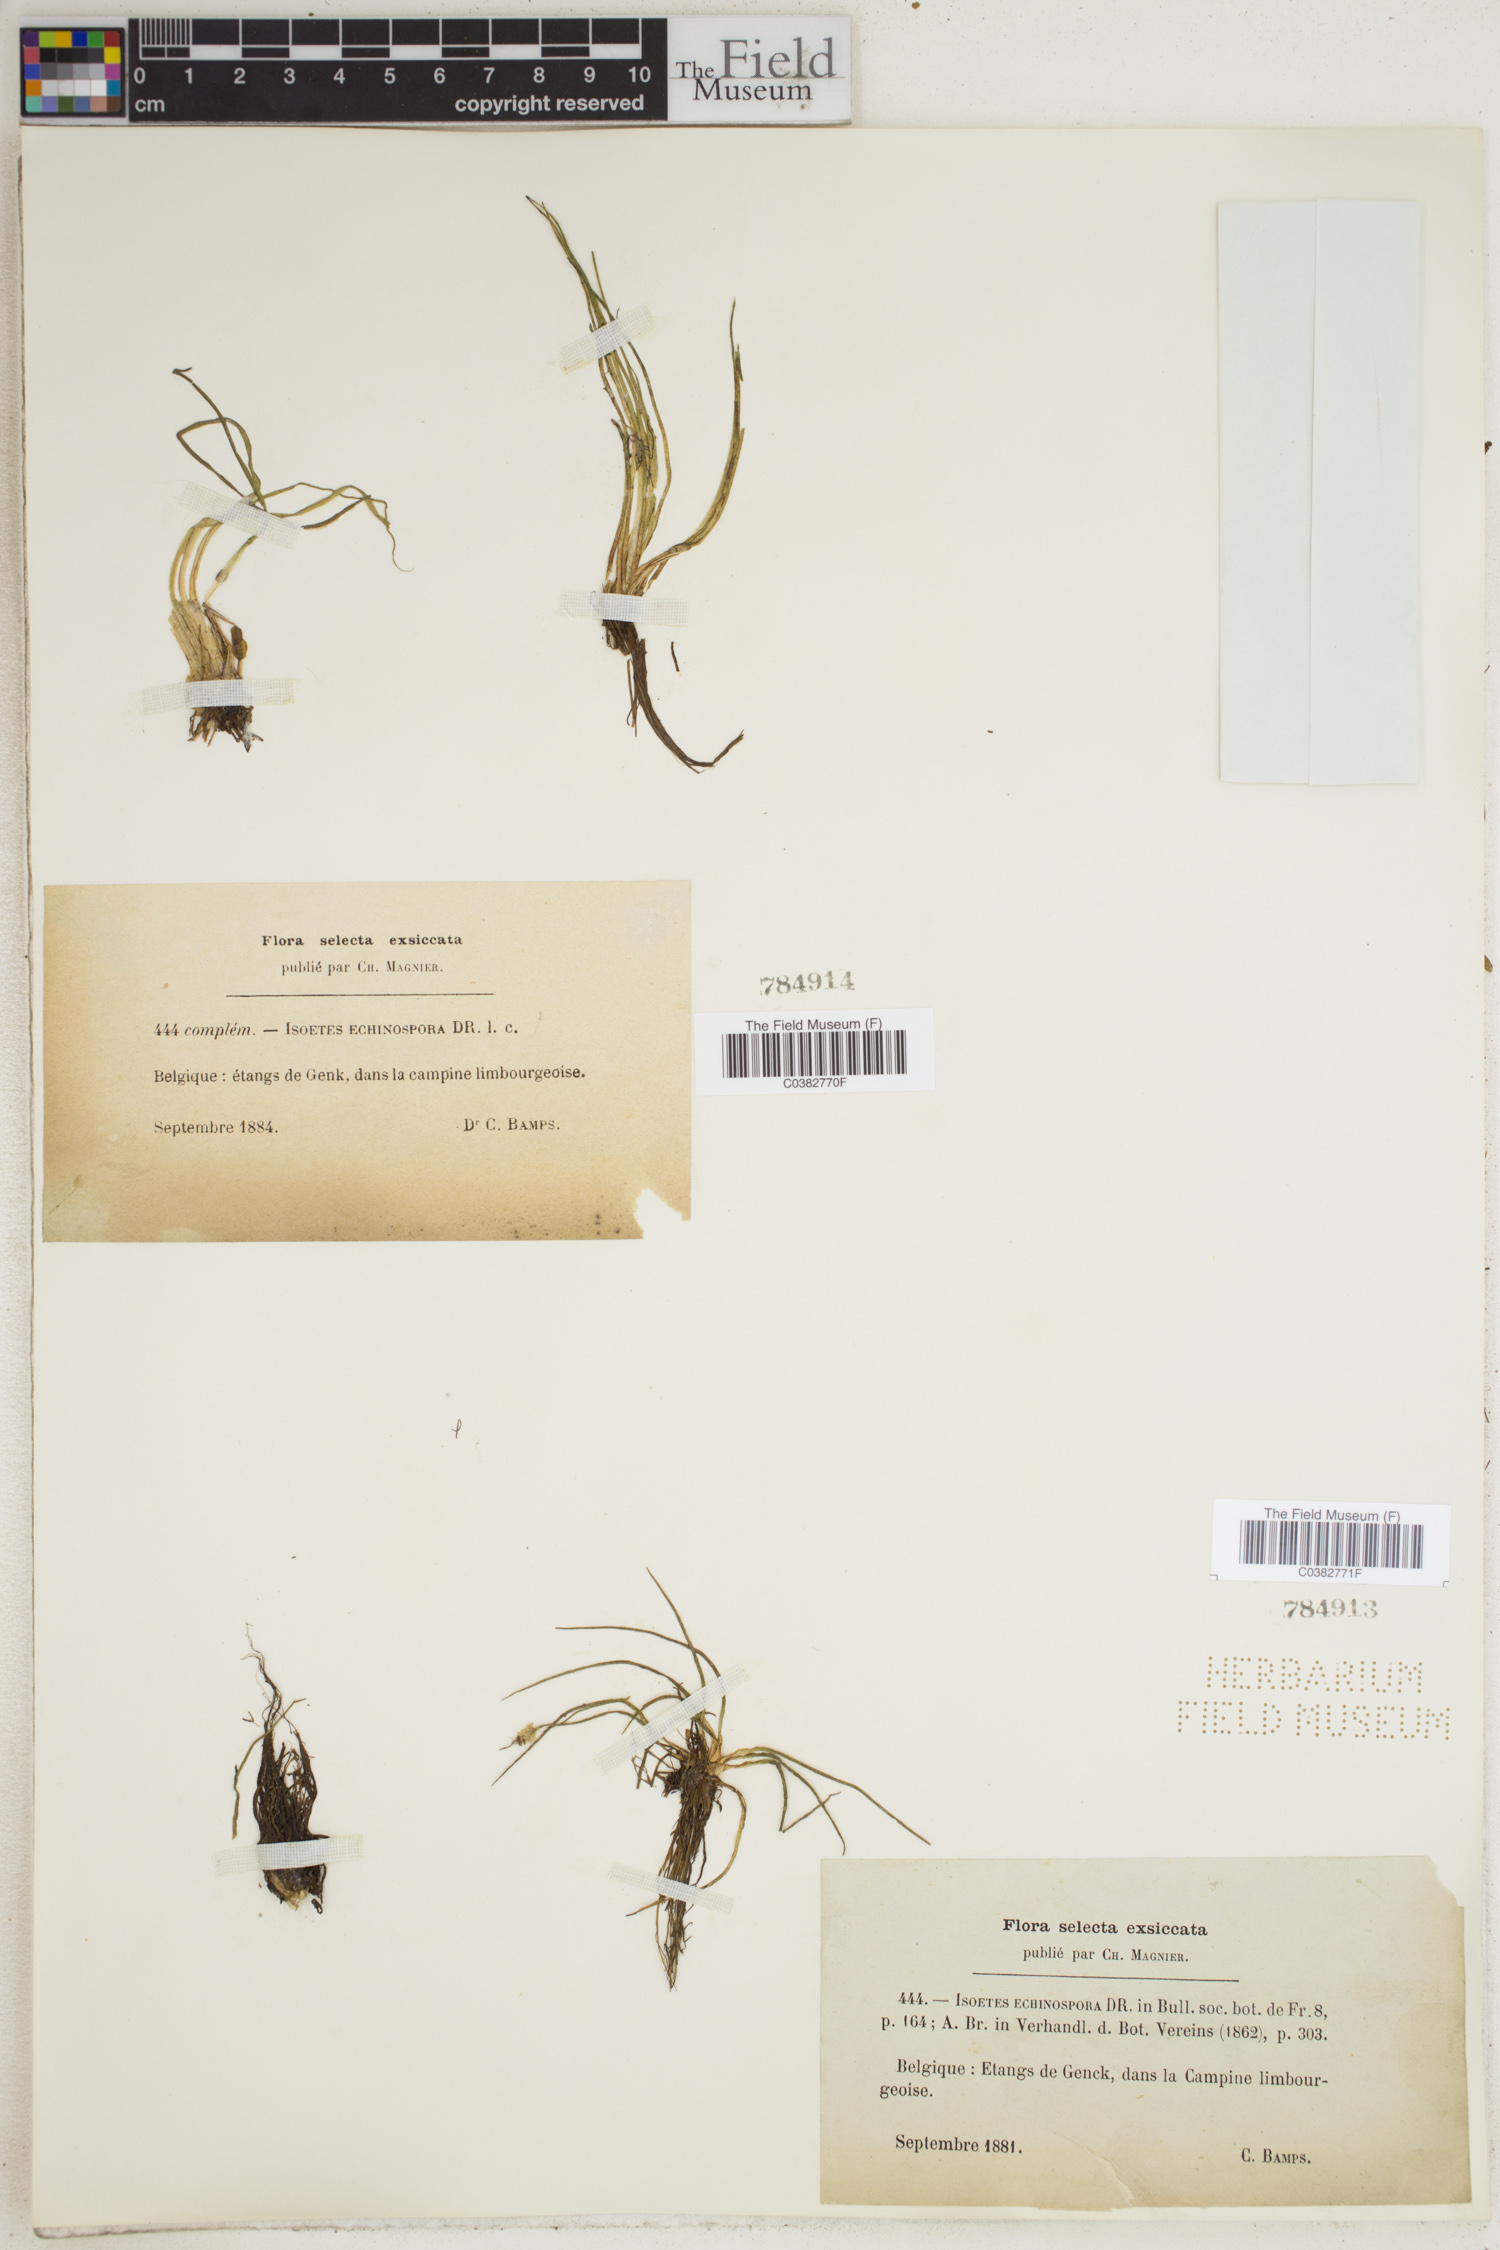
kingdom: Plantae
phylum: Tracheophyta
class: Lycopodiopsida
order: Isoetales
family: Isoetaceae
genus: Isoetes
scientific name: Isoetes echinospora
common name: Spring quillwort
